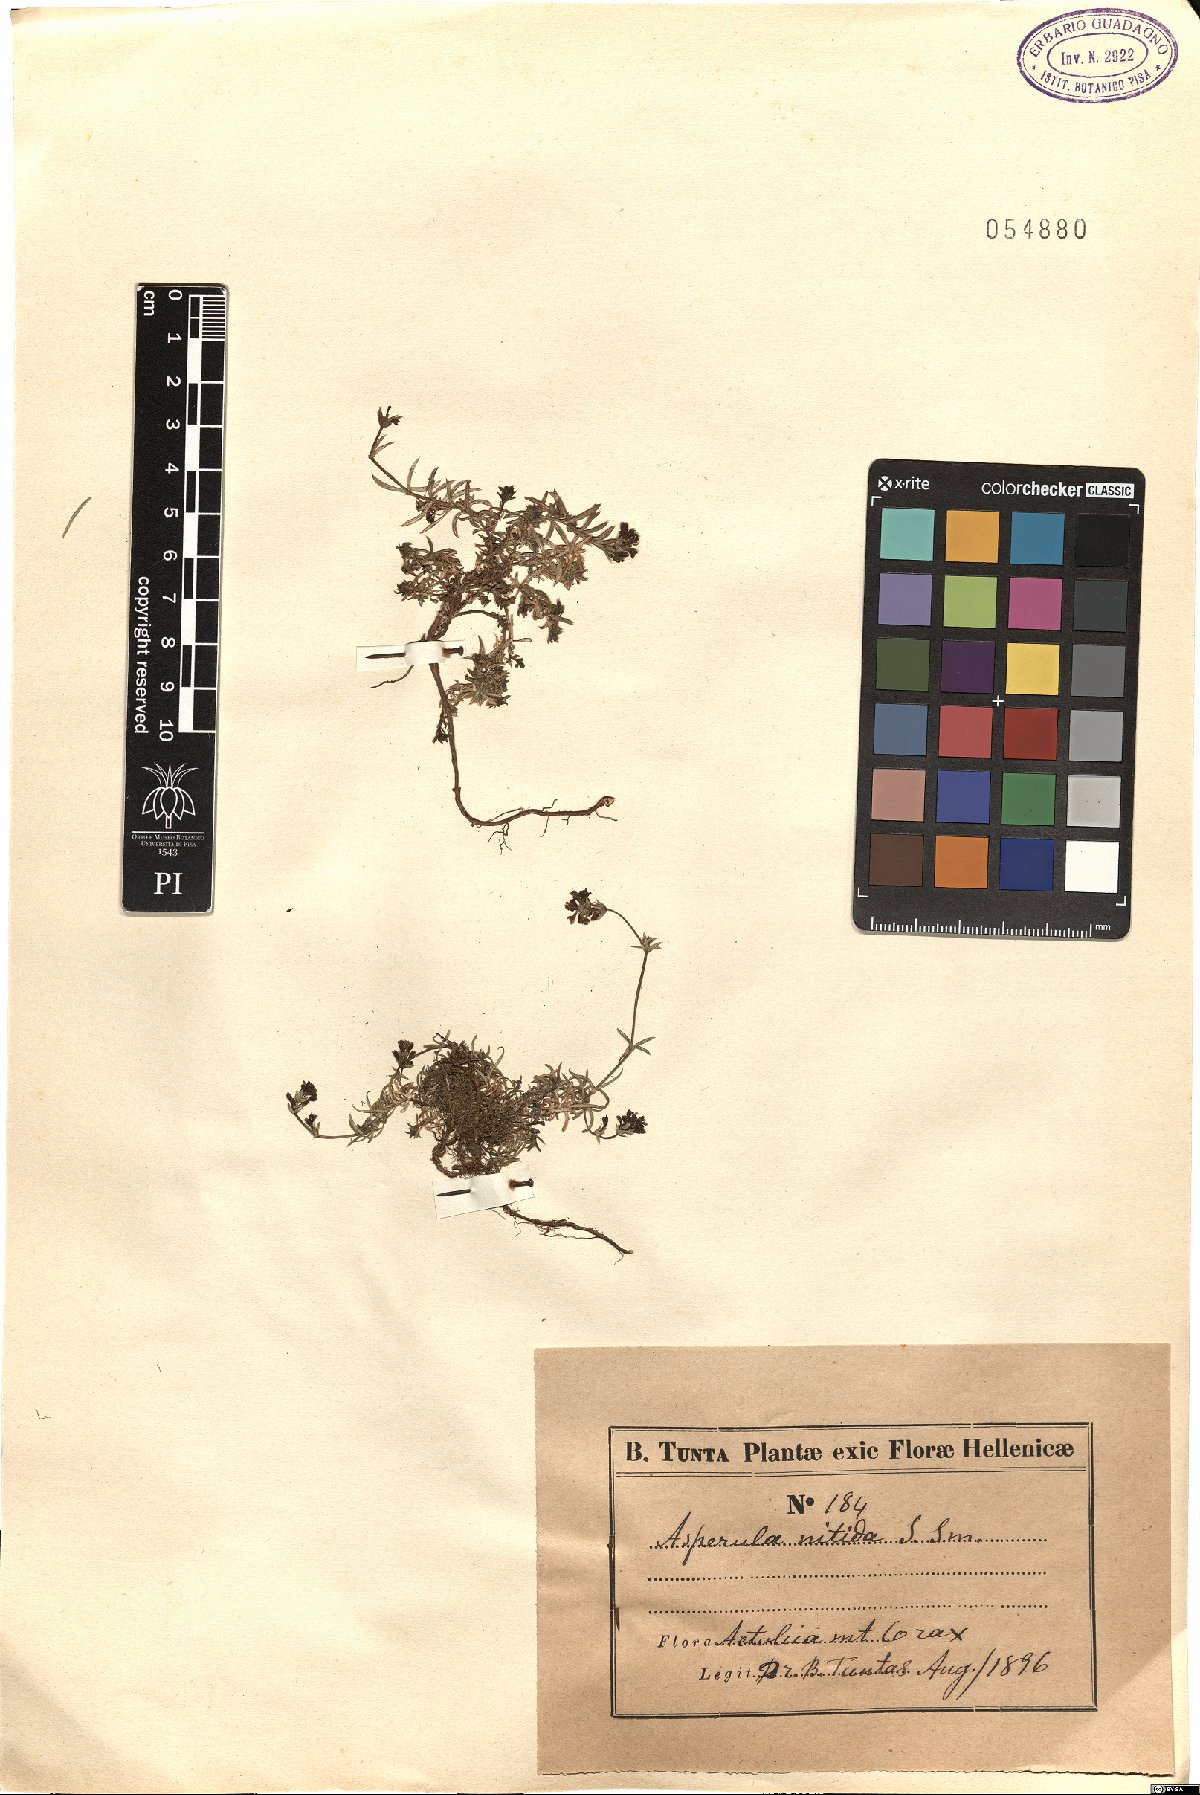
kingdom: Plantae
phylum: Tracheophyta
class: Magnoliopsida
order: Gentianales
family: Rubiaceae
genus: Cynanchica
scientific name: Cynanchica nitida
